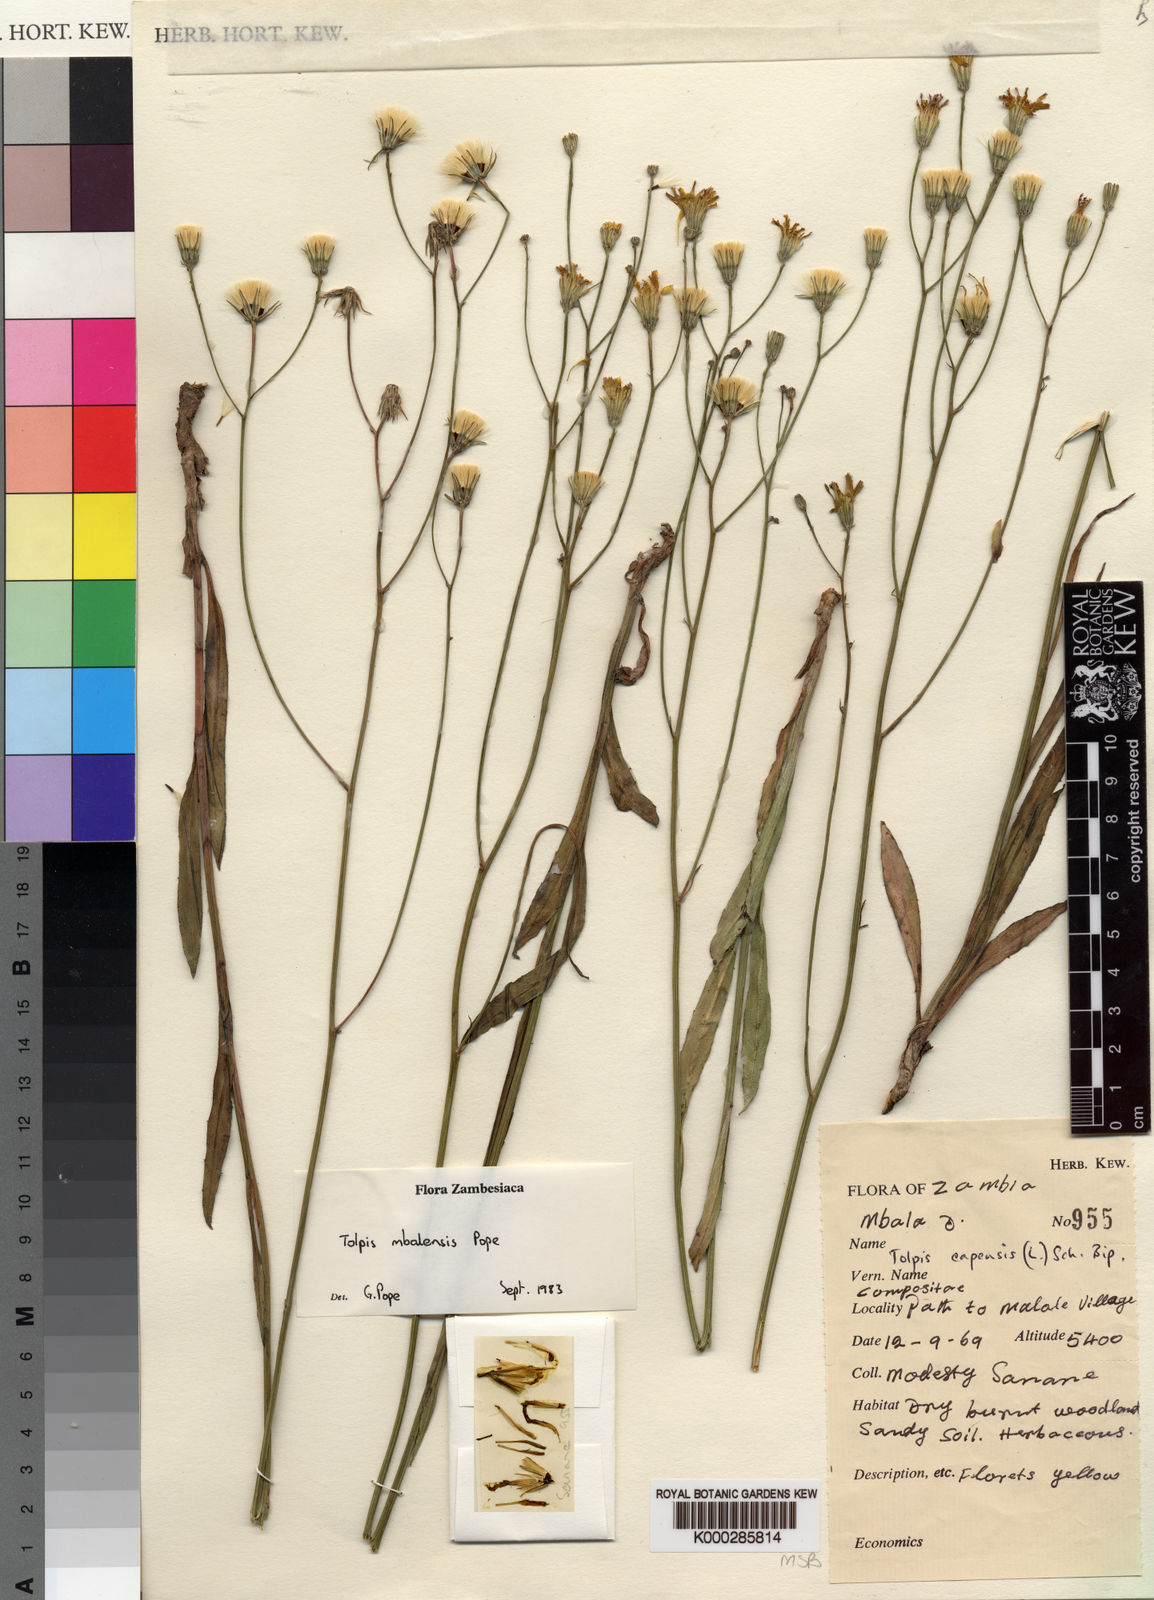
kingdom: Plantae
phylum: Tracheophyta
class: Magnoliopsida
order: Asterales
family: Asteraceae
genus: Tolpis
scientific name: Tolpis mbalensis
